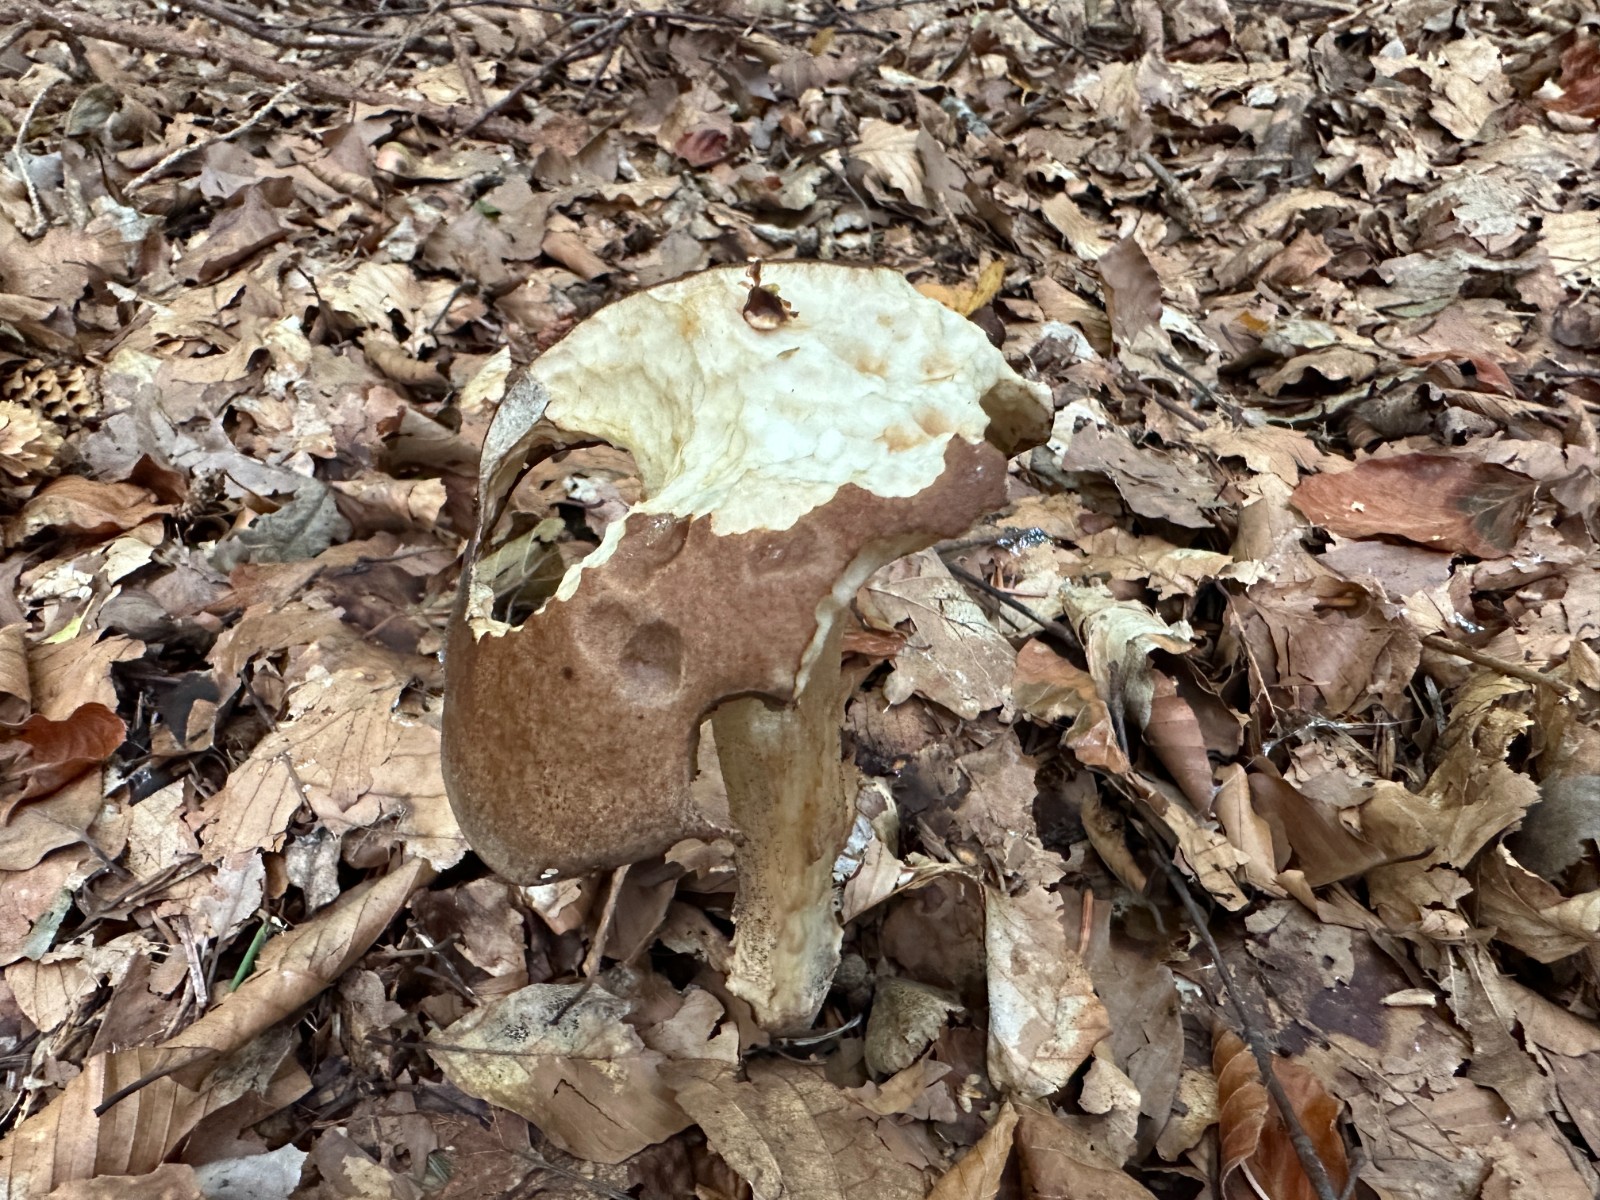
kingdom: Fungi
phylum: Basidiomycota
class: Agaricomycetes
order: Boletales
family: Boletaceae
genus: Leccinellum
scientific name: Leccinellum pseudoscabrum
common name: avnbøg-skælrørhat
